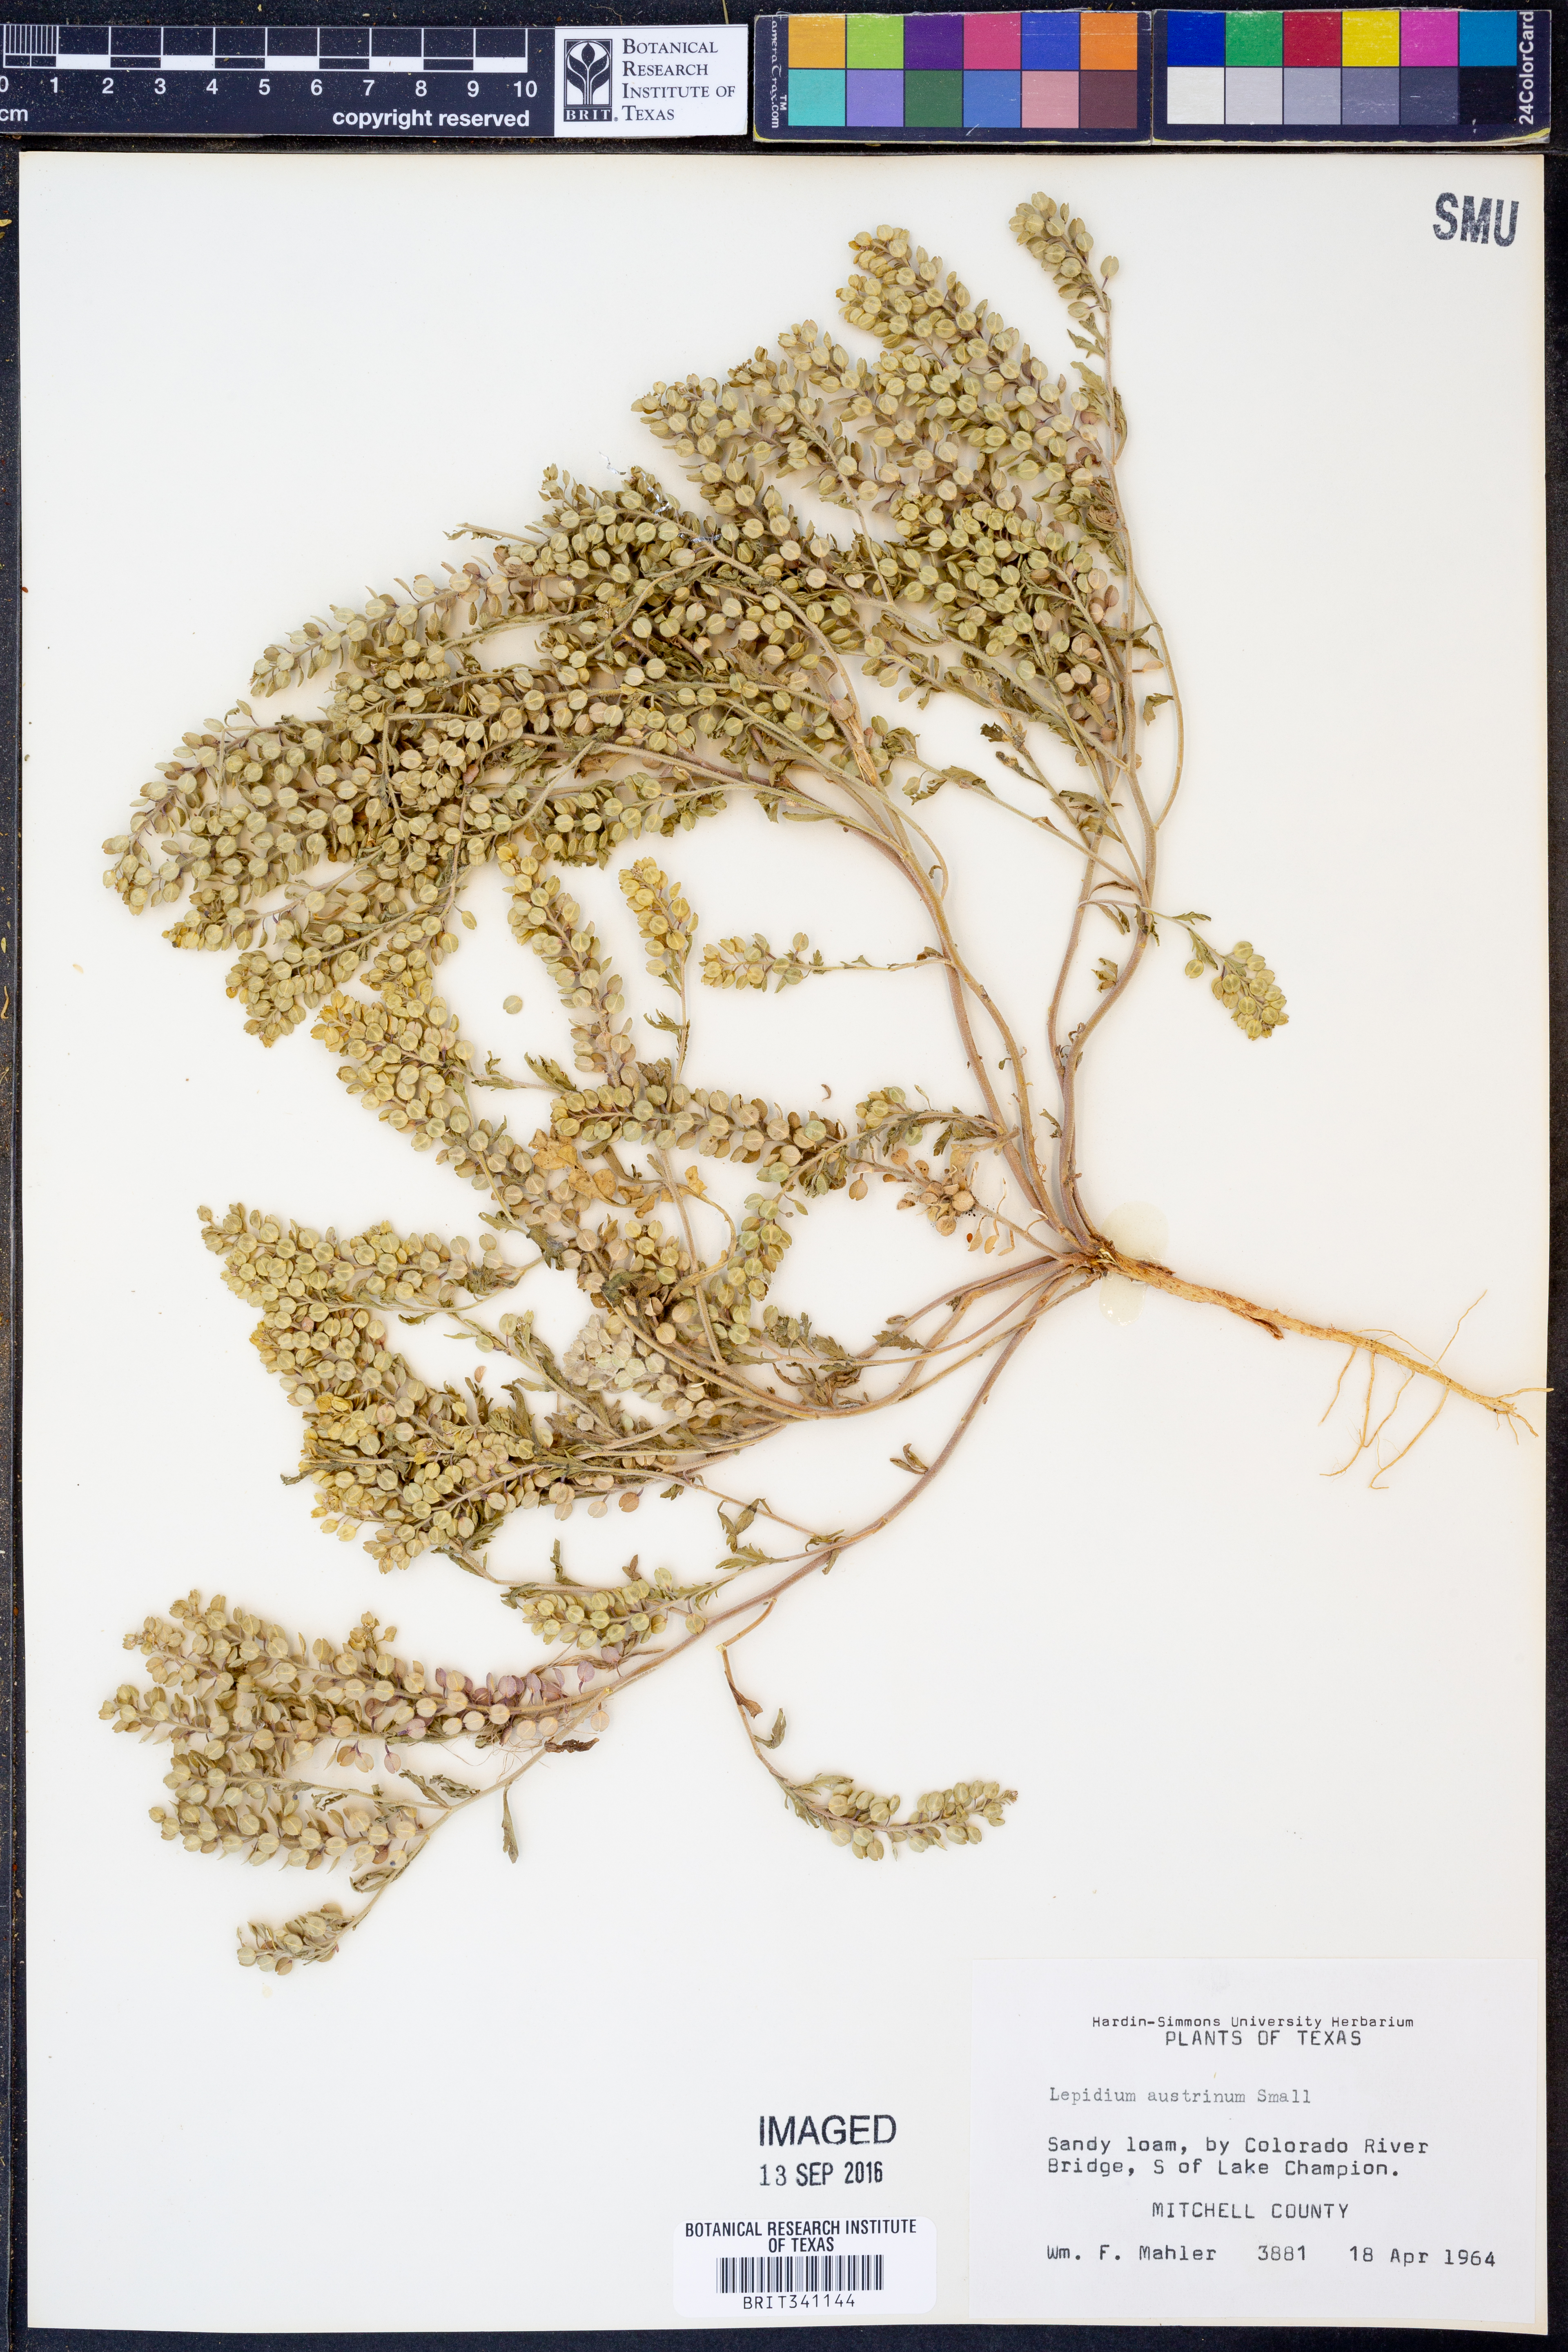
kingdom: Plantae
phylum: Tracheophyta
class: Magnoliopsida
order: Brassicales
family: Brassicaceae
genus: Lepidium
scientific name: Lepidium austrinum
